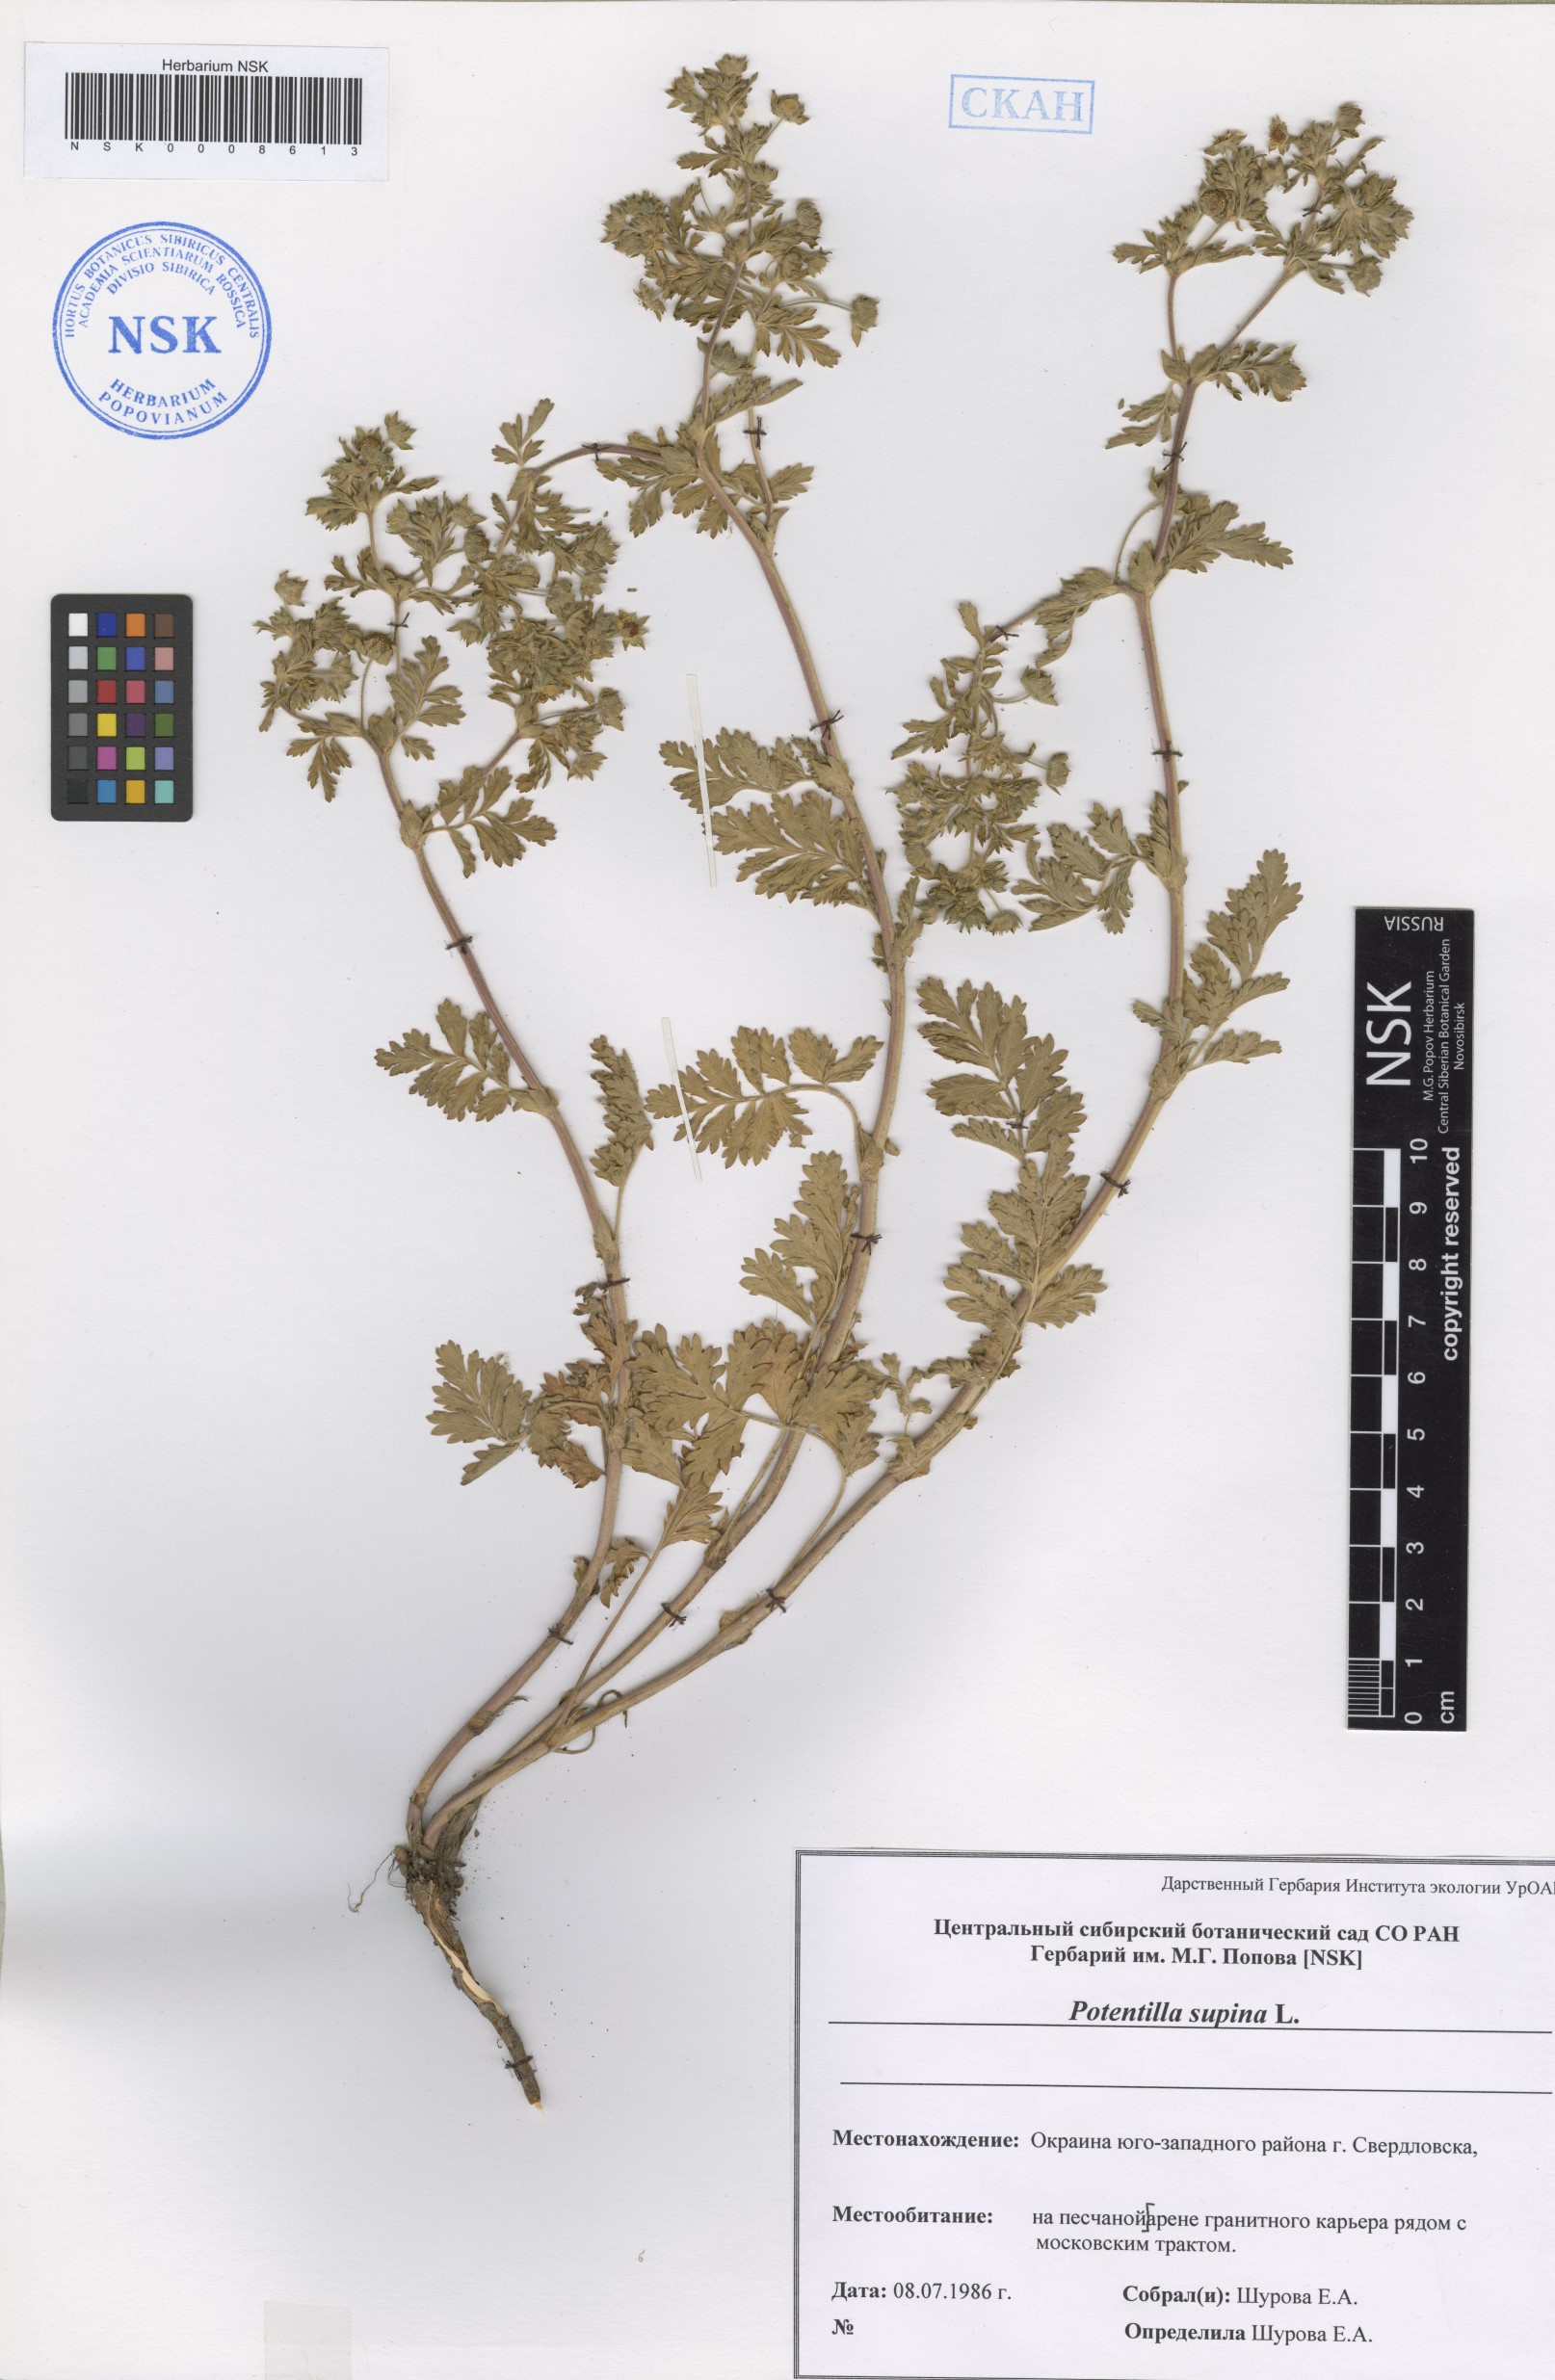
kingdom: Plantae
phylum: Tracheophyta
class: Magnoliopsida
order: Rosales
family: Rosaceae
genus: Potentilla
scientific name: Potentilla supina
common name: Prostrate cinquefoil
